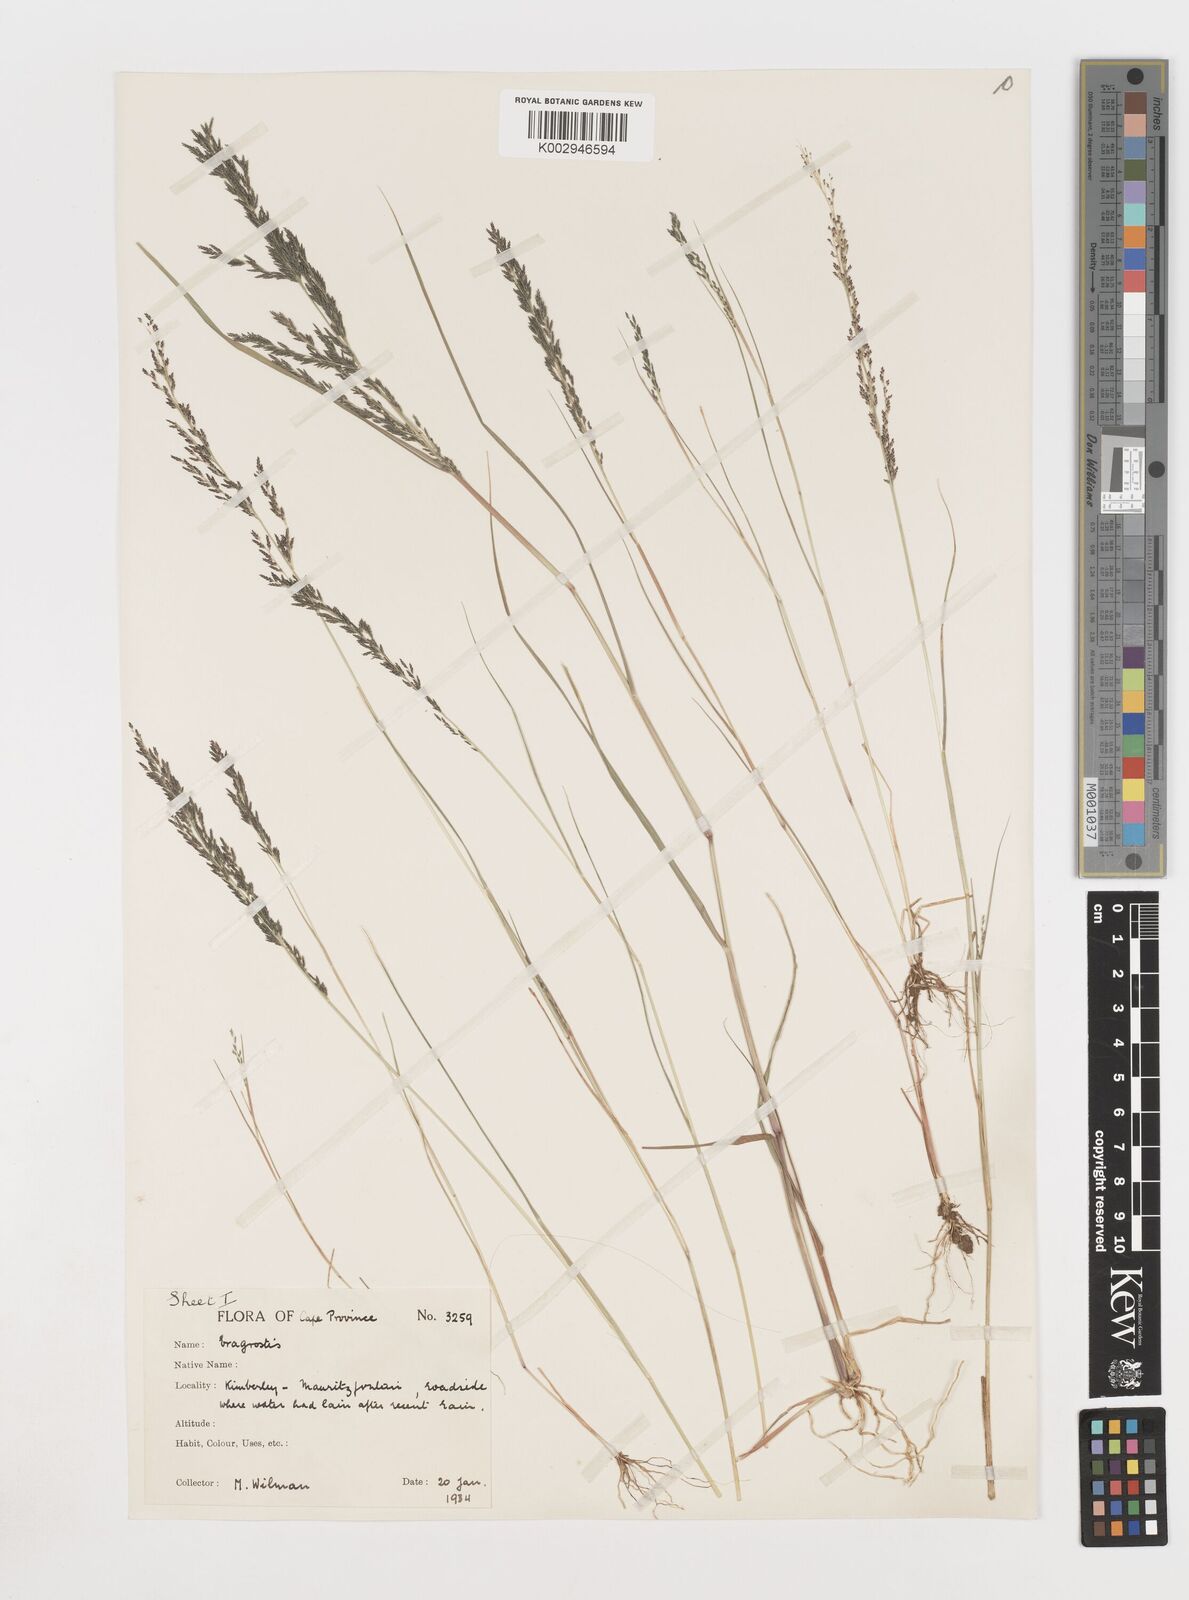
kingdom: Plantae
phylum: Tracheophyta
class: Liliopsida
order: Poales
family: Poaceae
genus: Eragrostis
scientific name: Eragrostis homomalla
